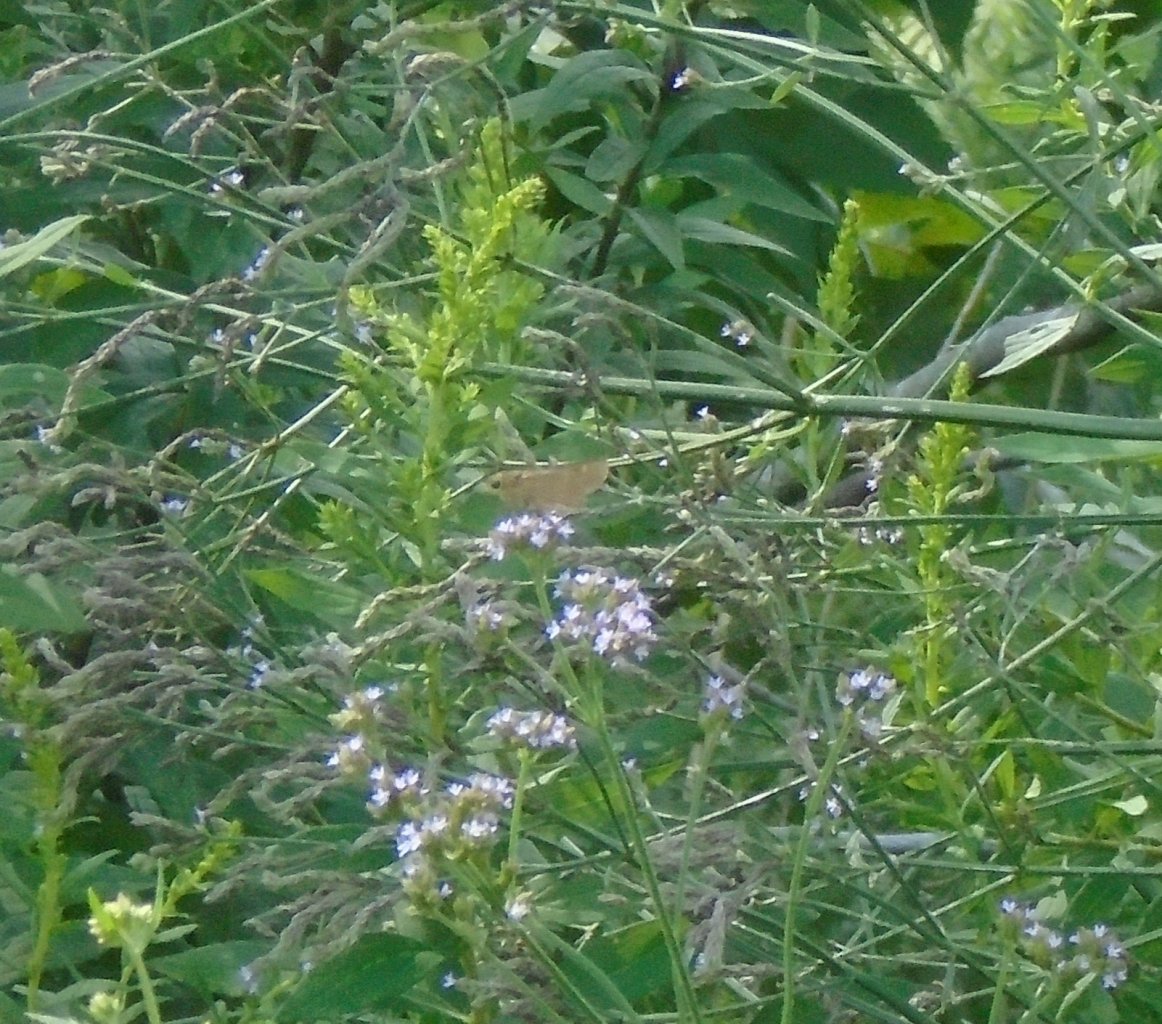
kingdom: Animalia
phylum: Arthropoda
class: Insecta
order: Lepidoptera
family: Hesperiidae
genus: Panoquina
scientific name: Panoquina ocola
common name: Ocola Skipper
